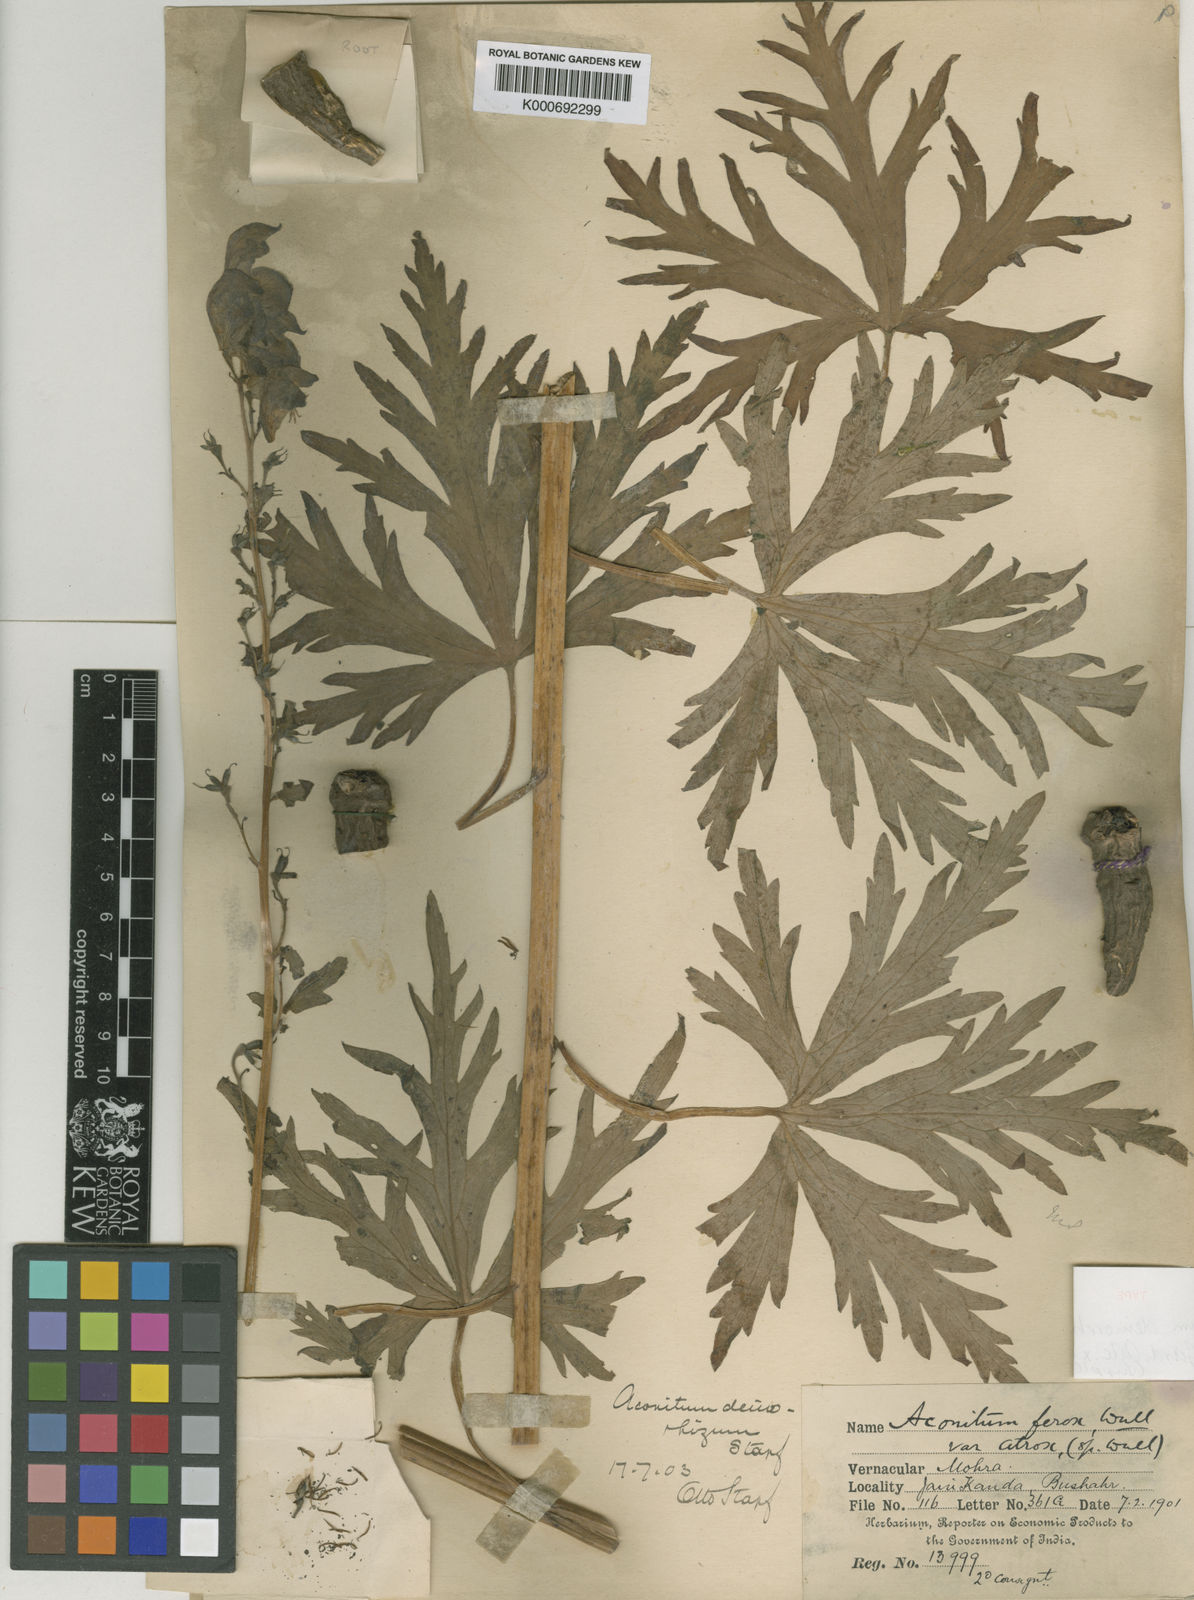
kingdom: Plantae
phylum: Tracheophyta
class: Magnoliopsida
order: Ranunculales
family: Ranunculaceae
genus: Aconitum
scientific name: Aconitum deinorrhizum
